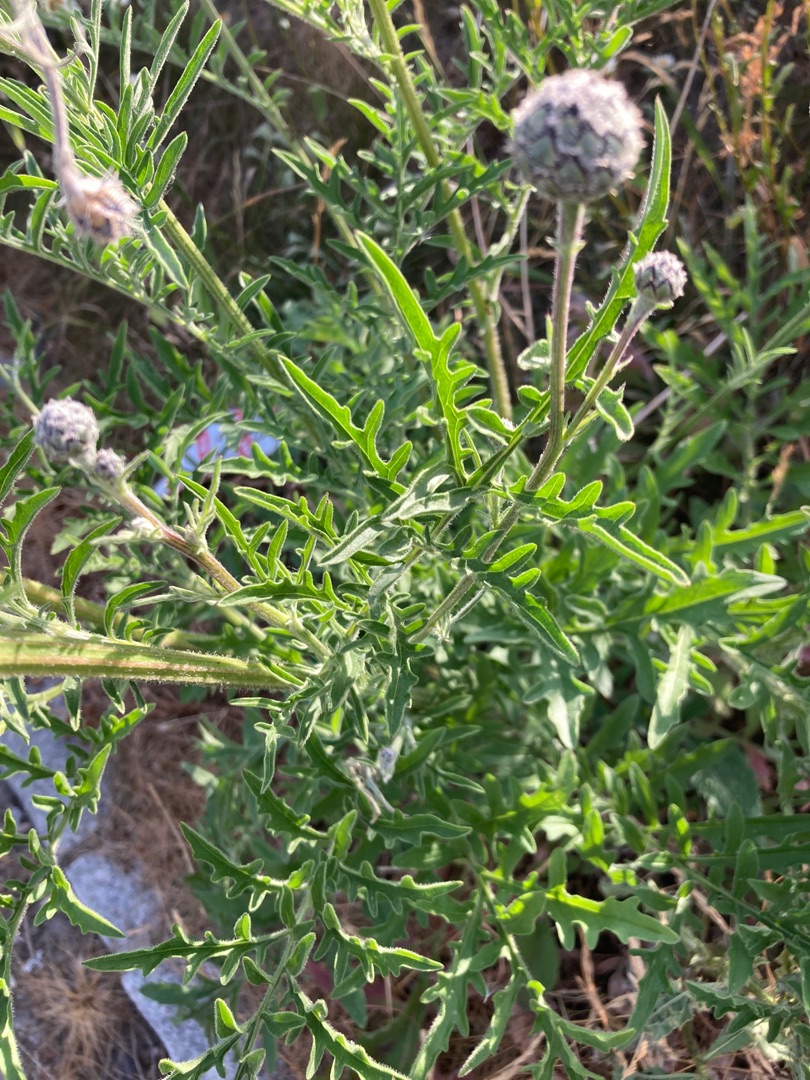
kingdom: Plantae
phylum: Tracheophyta
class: Magnoliopsida
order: Asterales
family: Asteraceae
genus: Centaurea
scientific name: Centaurea scabiosa
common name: Stor knopurt
